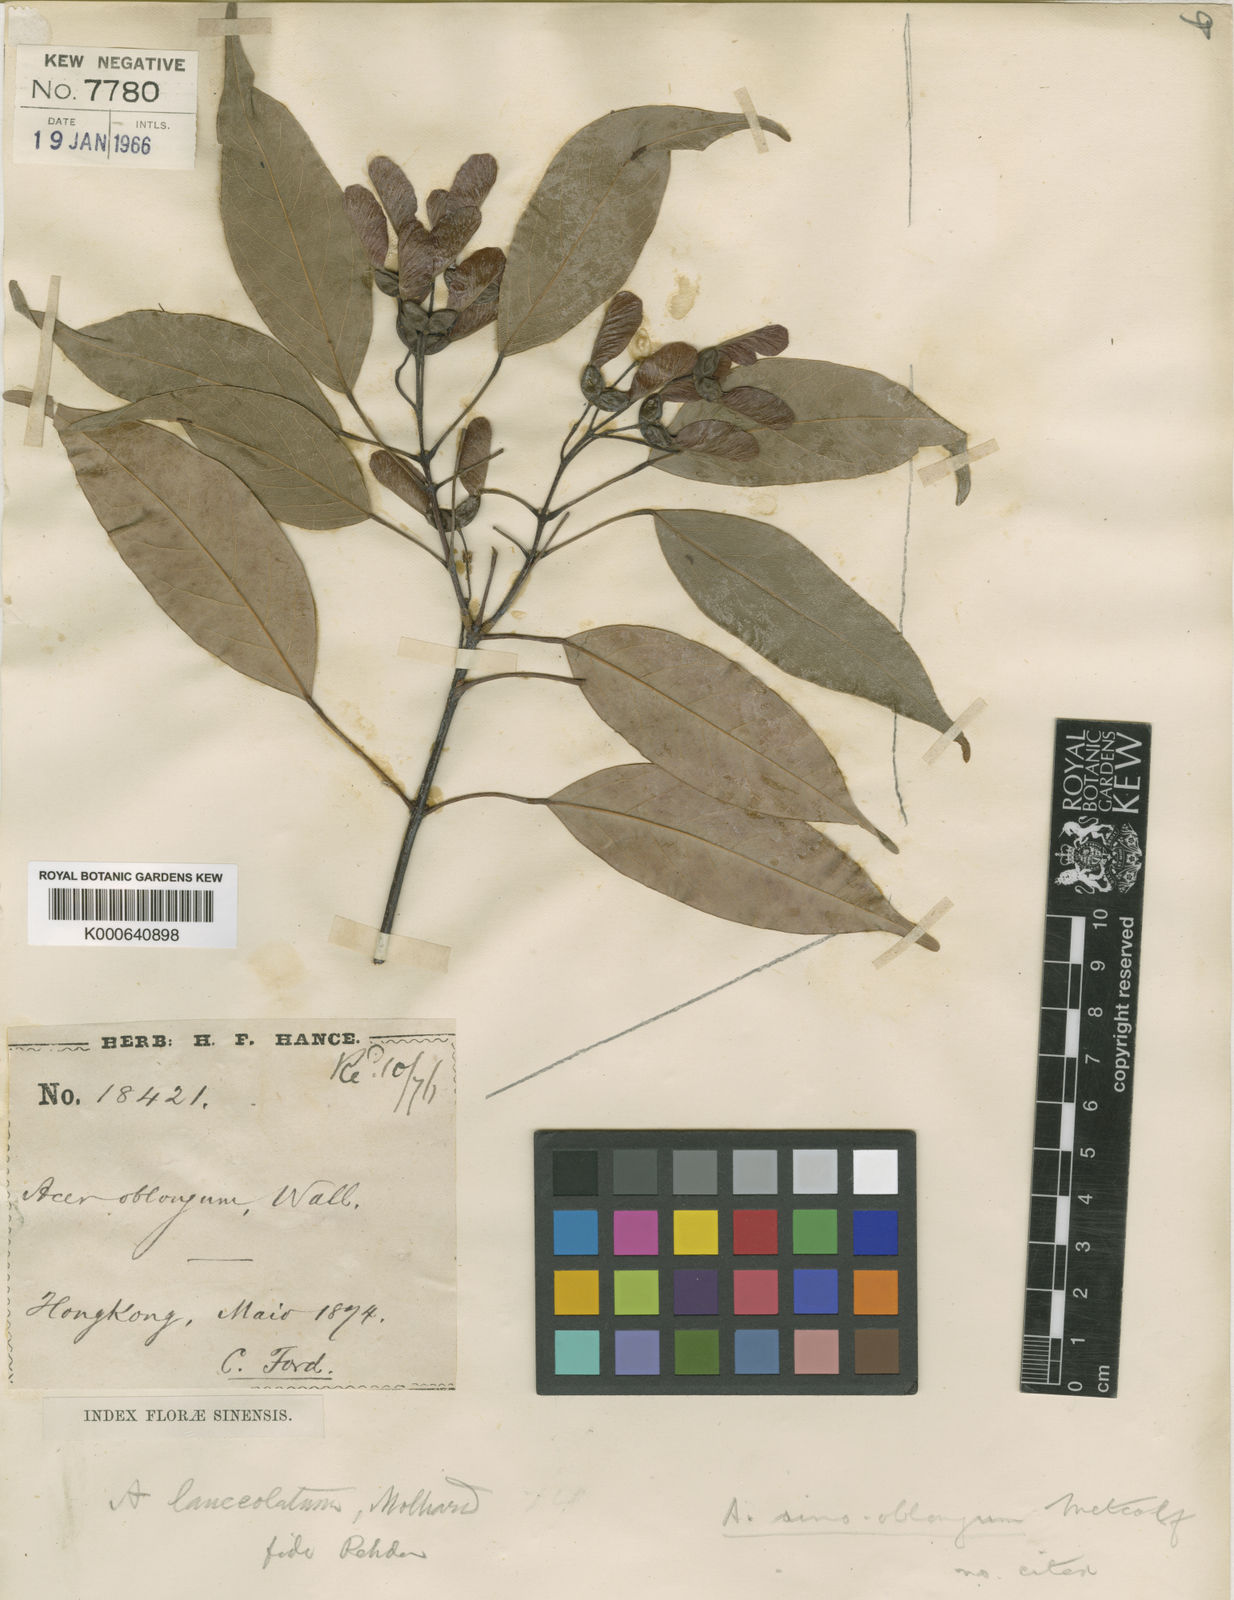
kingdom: Plantae
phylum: Tracheophyta
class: Magnoliopsida
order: Sapindales
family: Sapindaceae
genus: Acer
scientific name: Acer sino-oblongum
